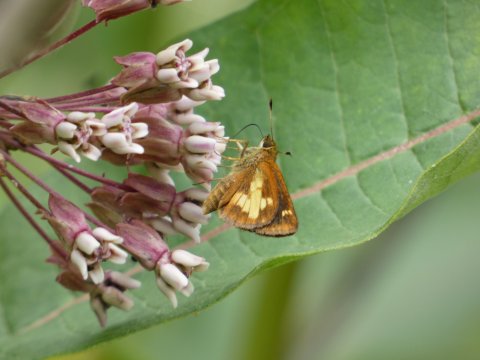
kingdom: Animalia
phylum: Arthropoda
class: Insecta
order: Lepidoptera
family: Hesperiidae
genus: Poanes
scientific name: Poanes massasoit
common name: Mulberry Wing
